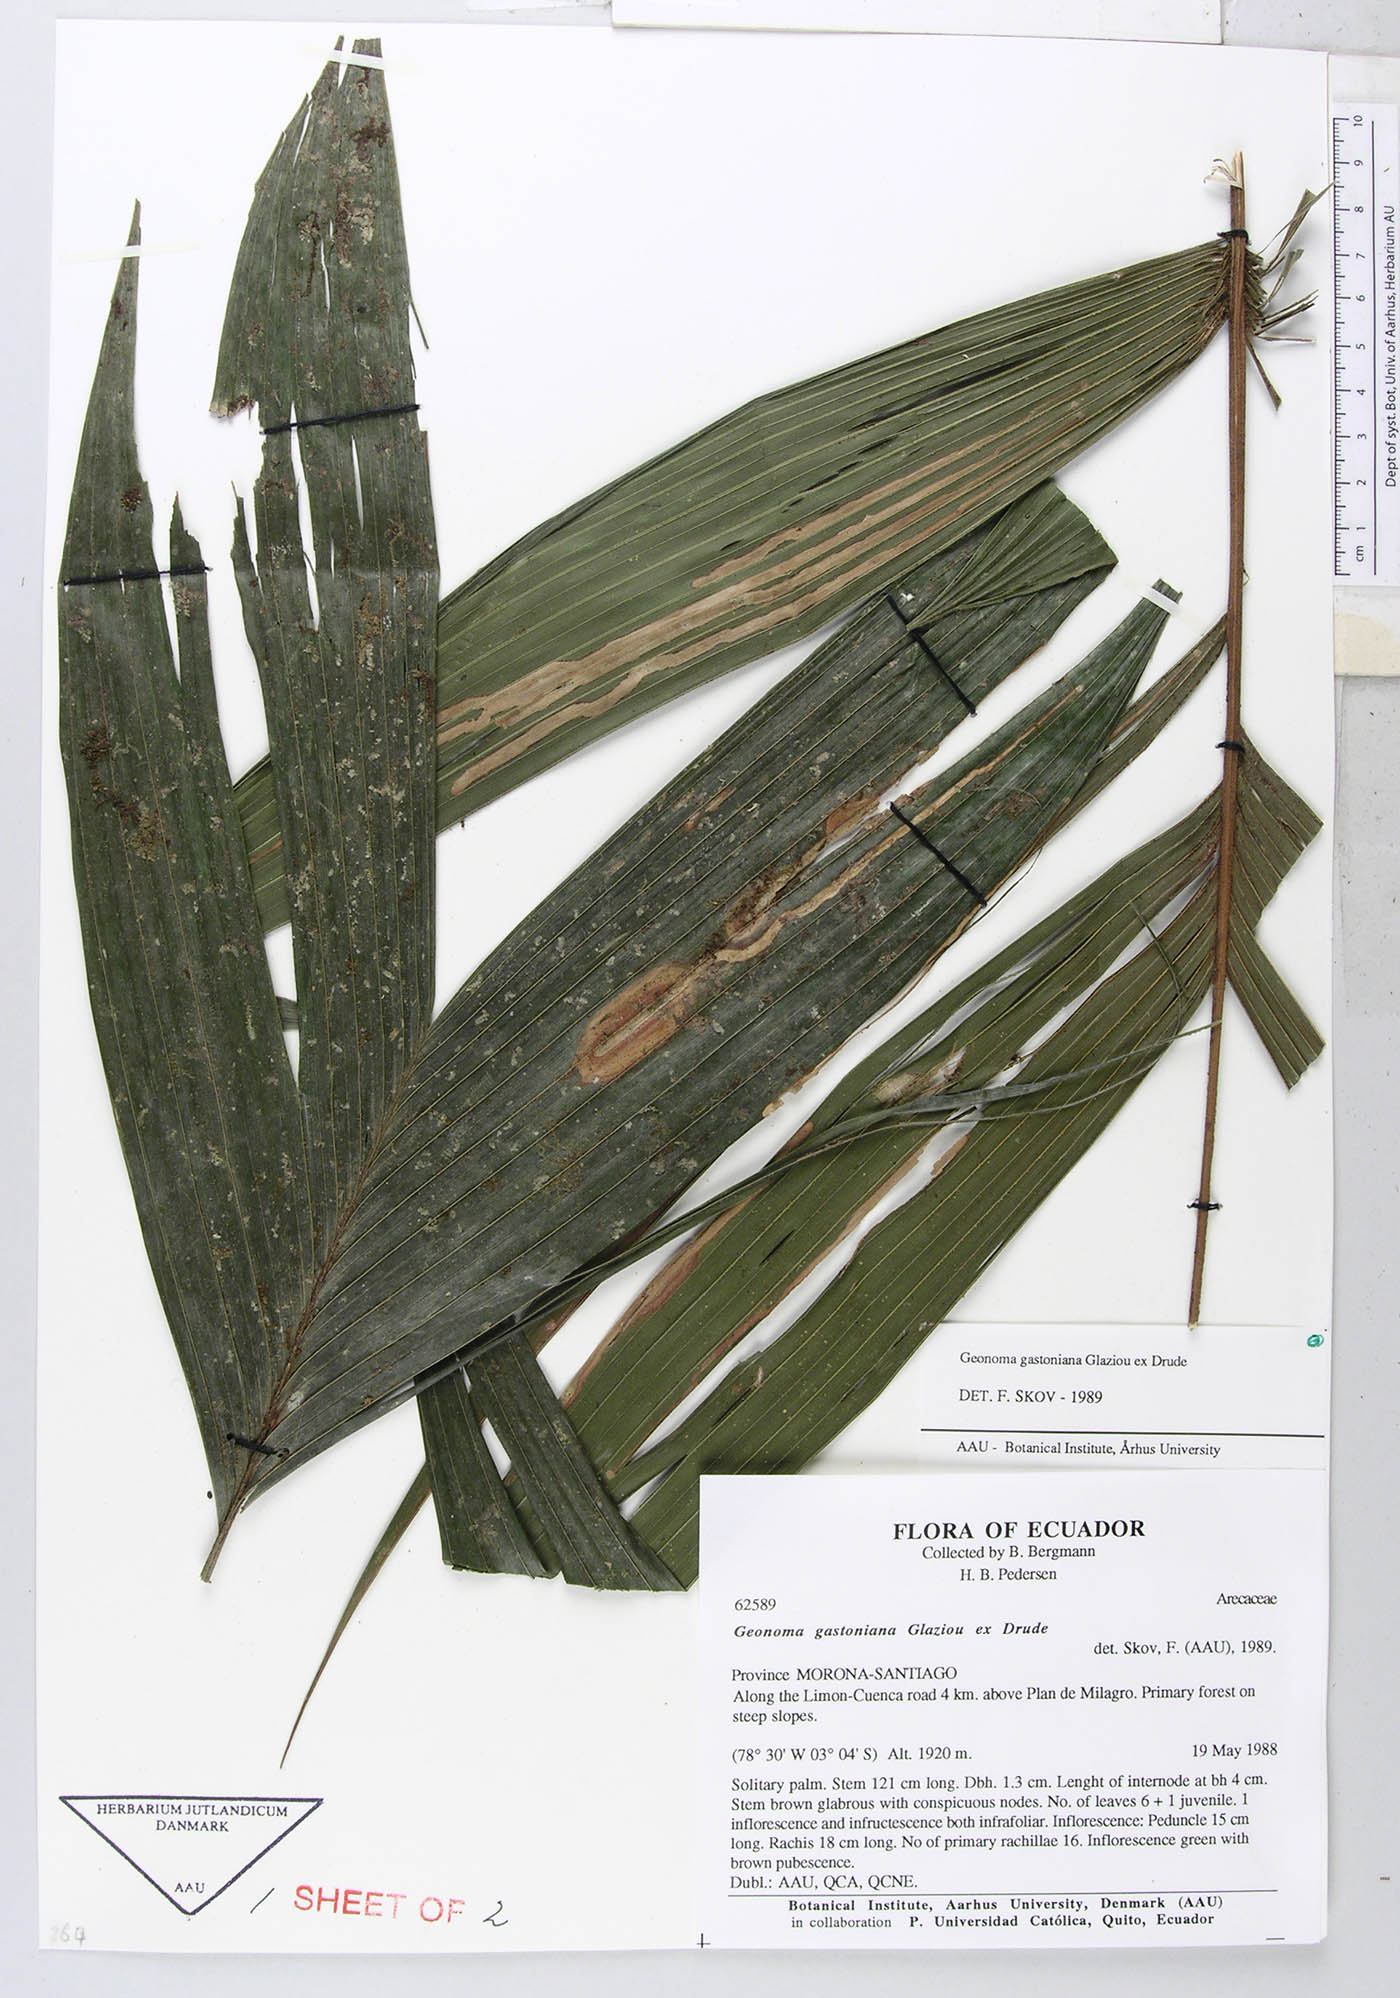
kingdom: Plantae
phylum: Tracheophyta
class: Liliopsida
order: Arecales
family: Arecaceae
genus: Geonoma
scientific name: Geonoma undata
